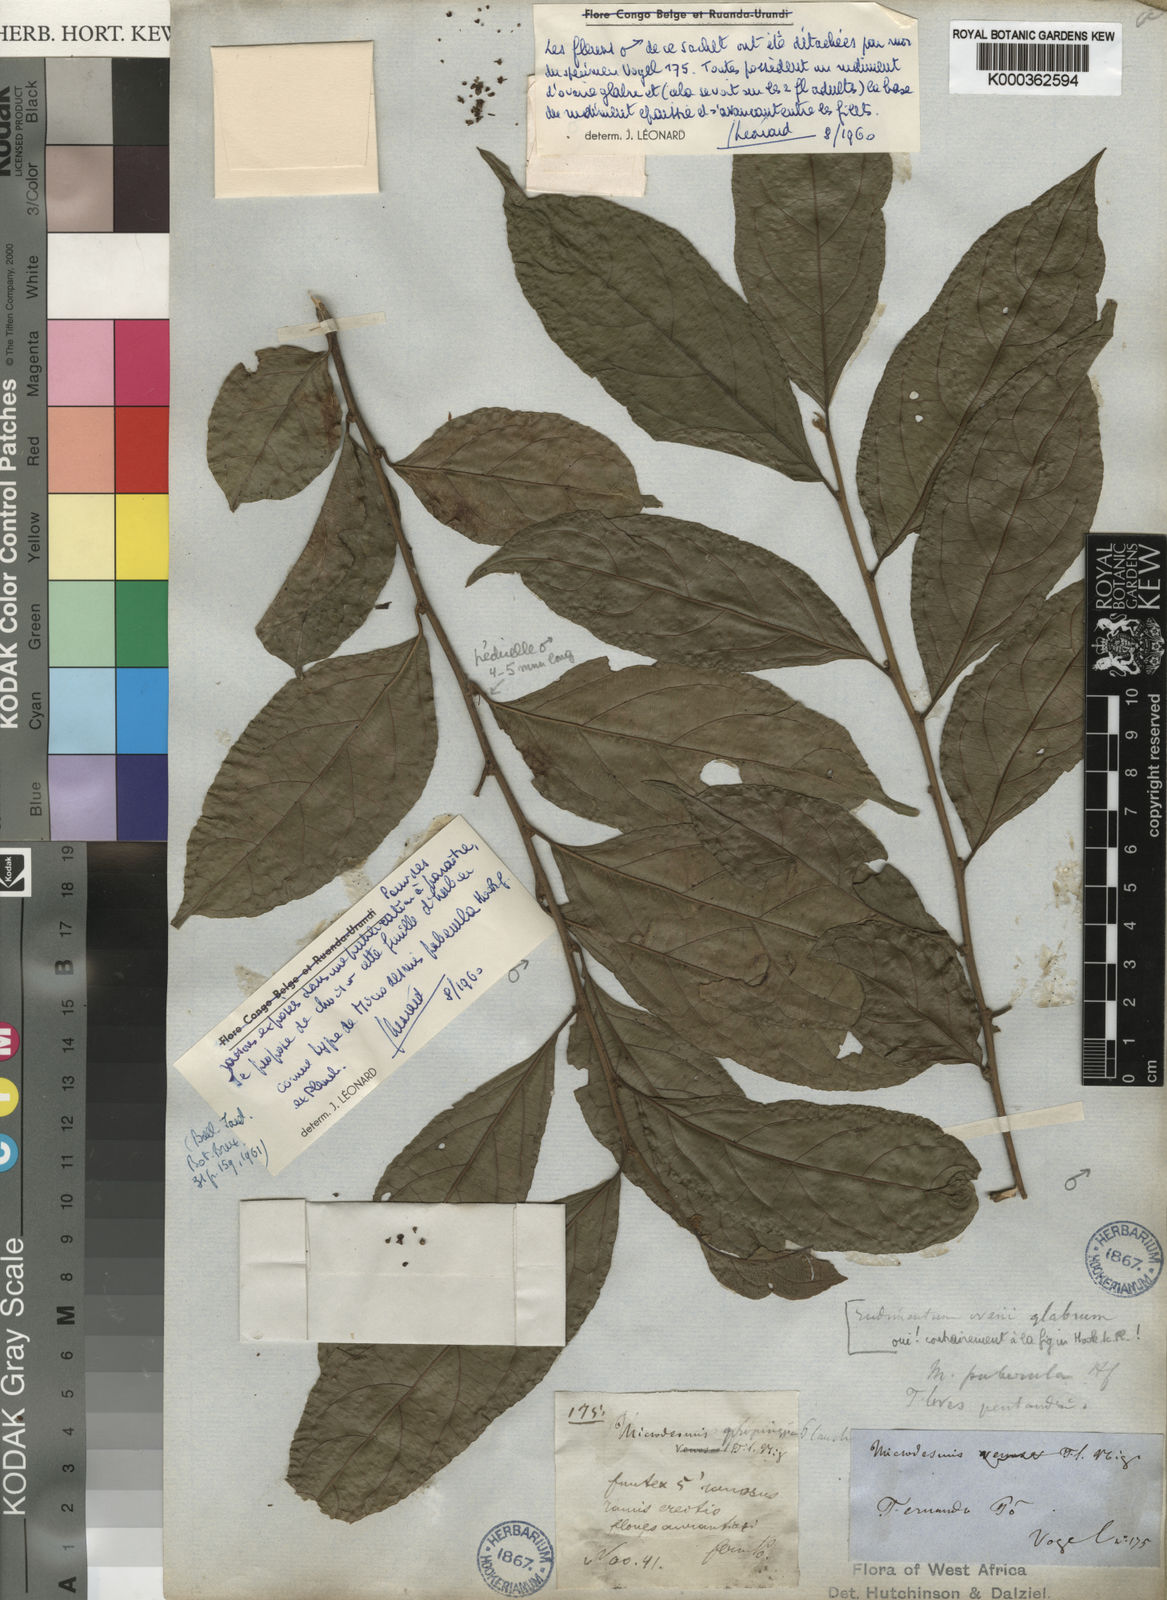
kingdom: Plantae
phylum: Tracheophyta
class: Magnoliopsida
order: Malpighiales
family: Pandaceae
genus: Microdesmis
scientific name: Microdesmis puberula
